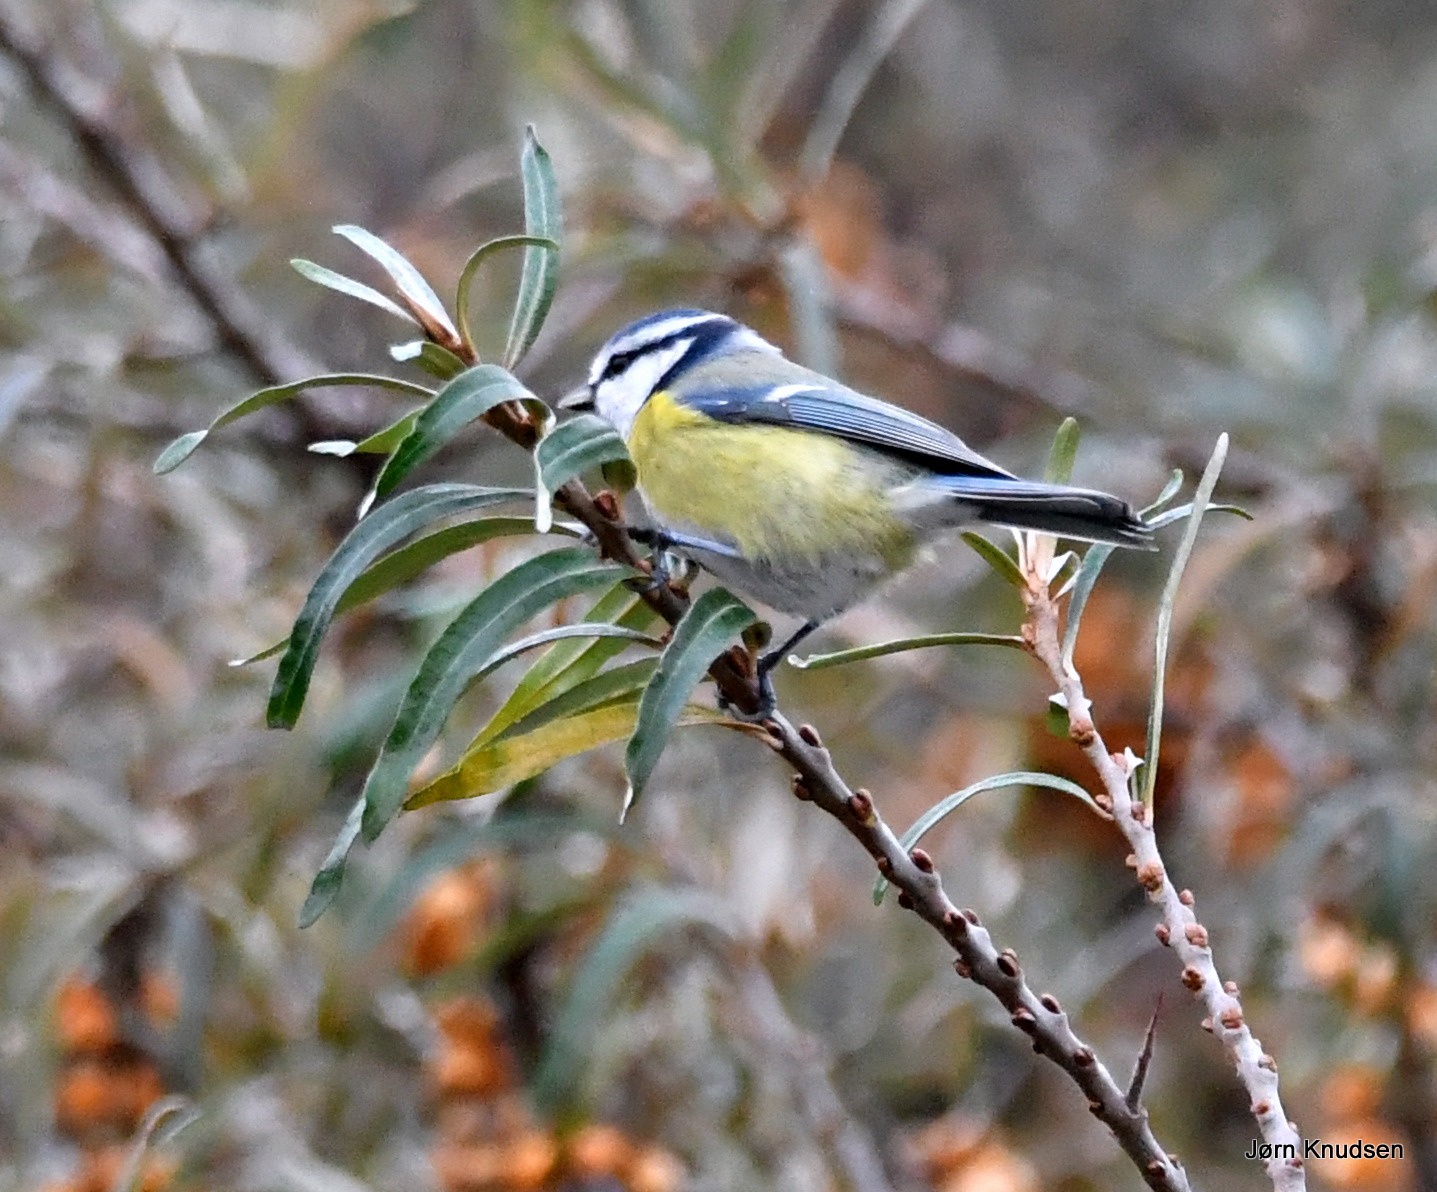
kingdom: Animalia
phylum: Chordata
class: Aves
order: Passeriformes
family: Paridae
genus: Cyanistes
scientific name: Cyanistes caeruleus
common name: Blåmejse
